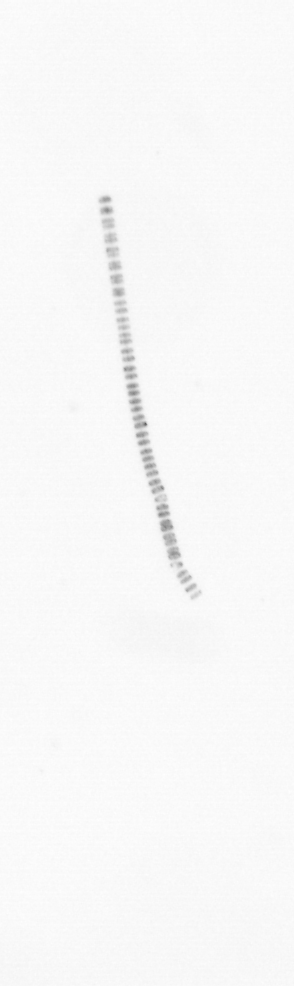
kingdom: Chromista
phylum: Ochrophyta
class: Bacillariophyceae
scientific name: Bacillariophyceae
